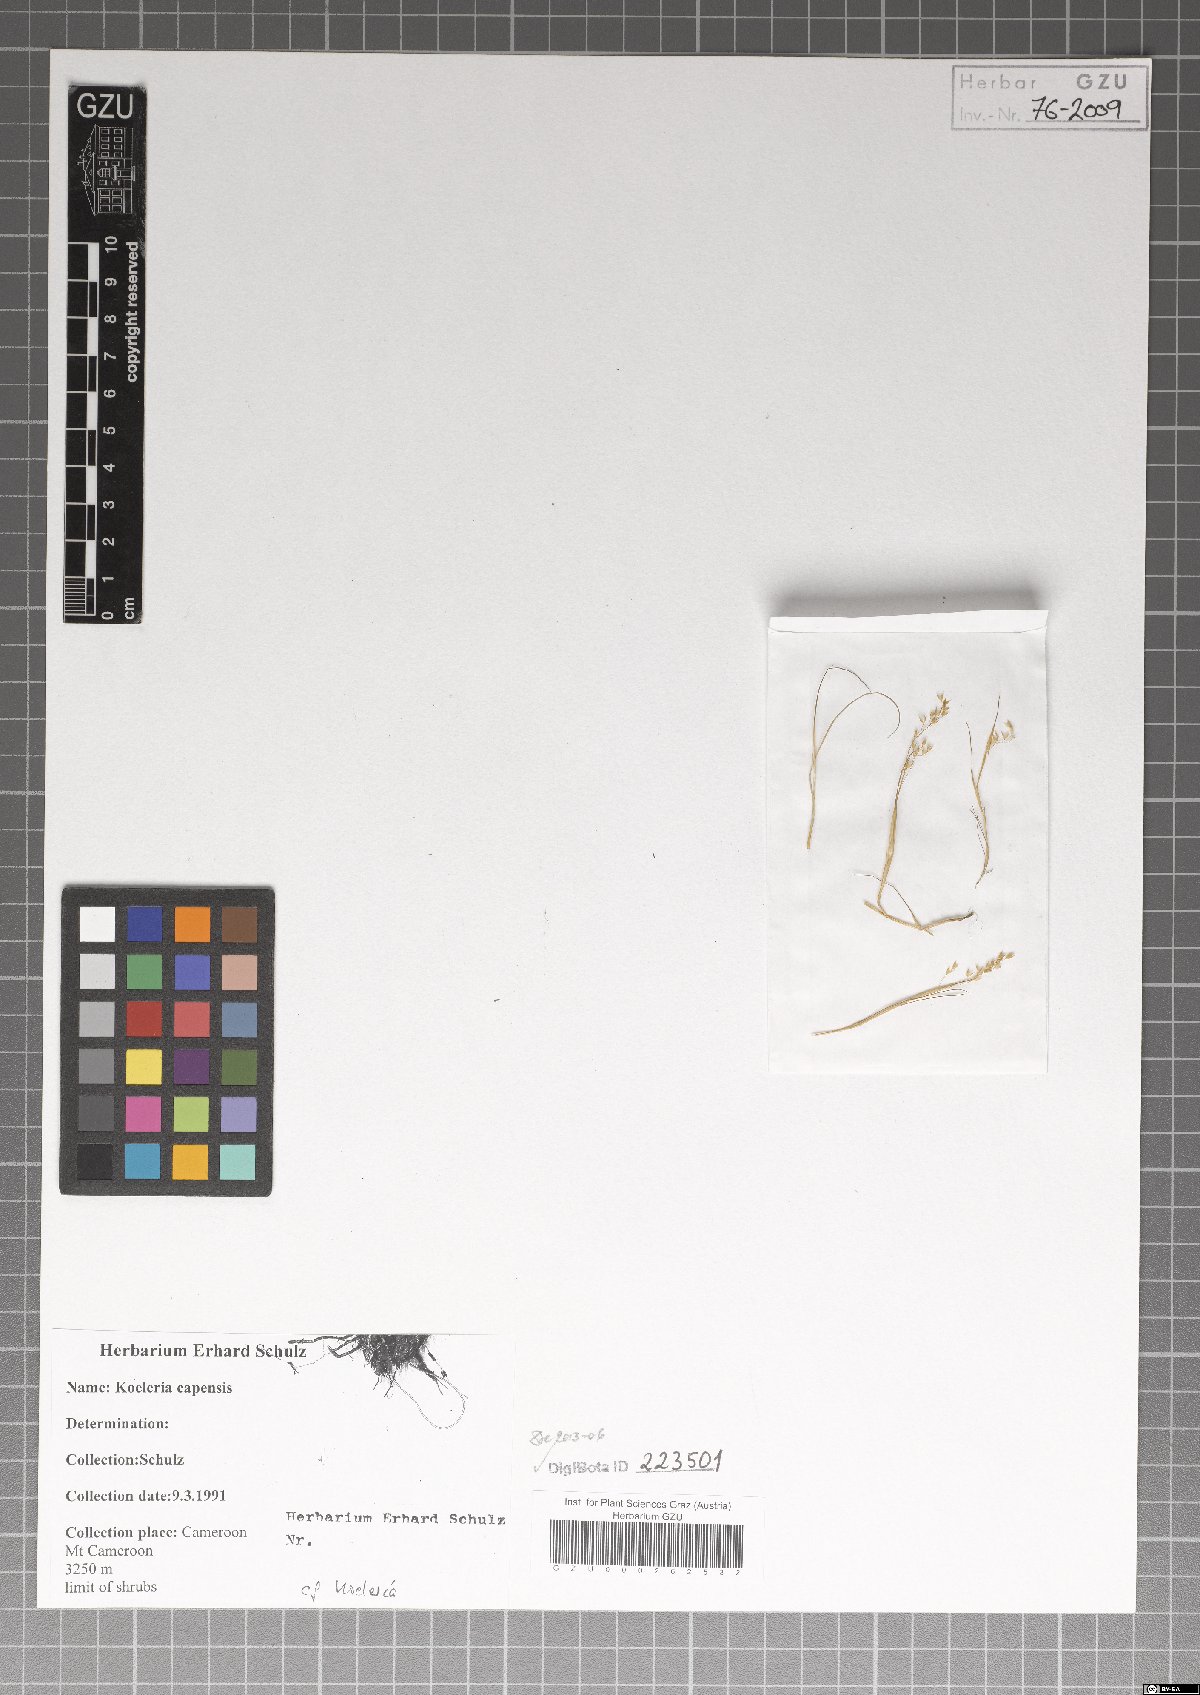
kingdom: Plantae
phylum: Tracheophyta
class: Liliopsida
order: Poales
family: Poaceae
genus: Koeleria
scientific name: Koeleria capensis
